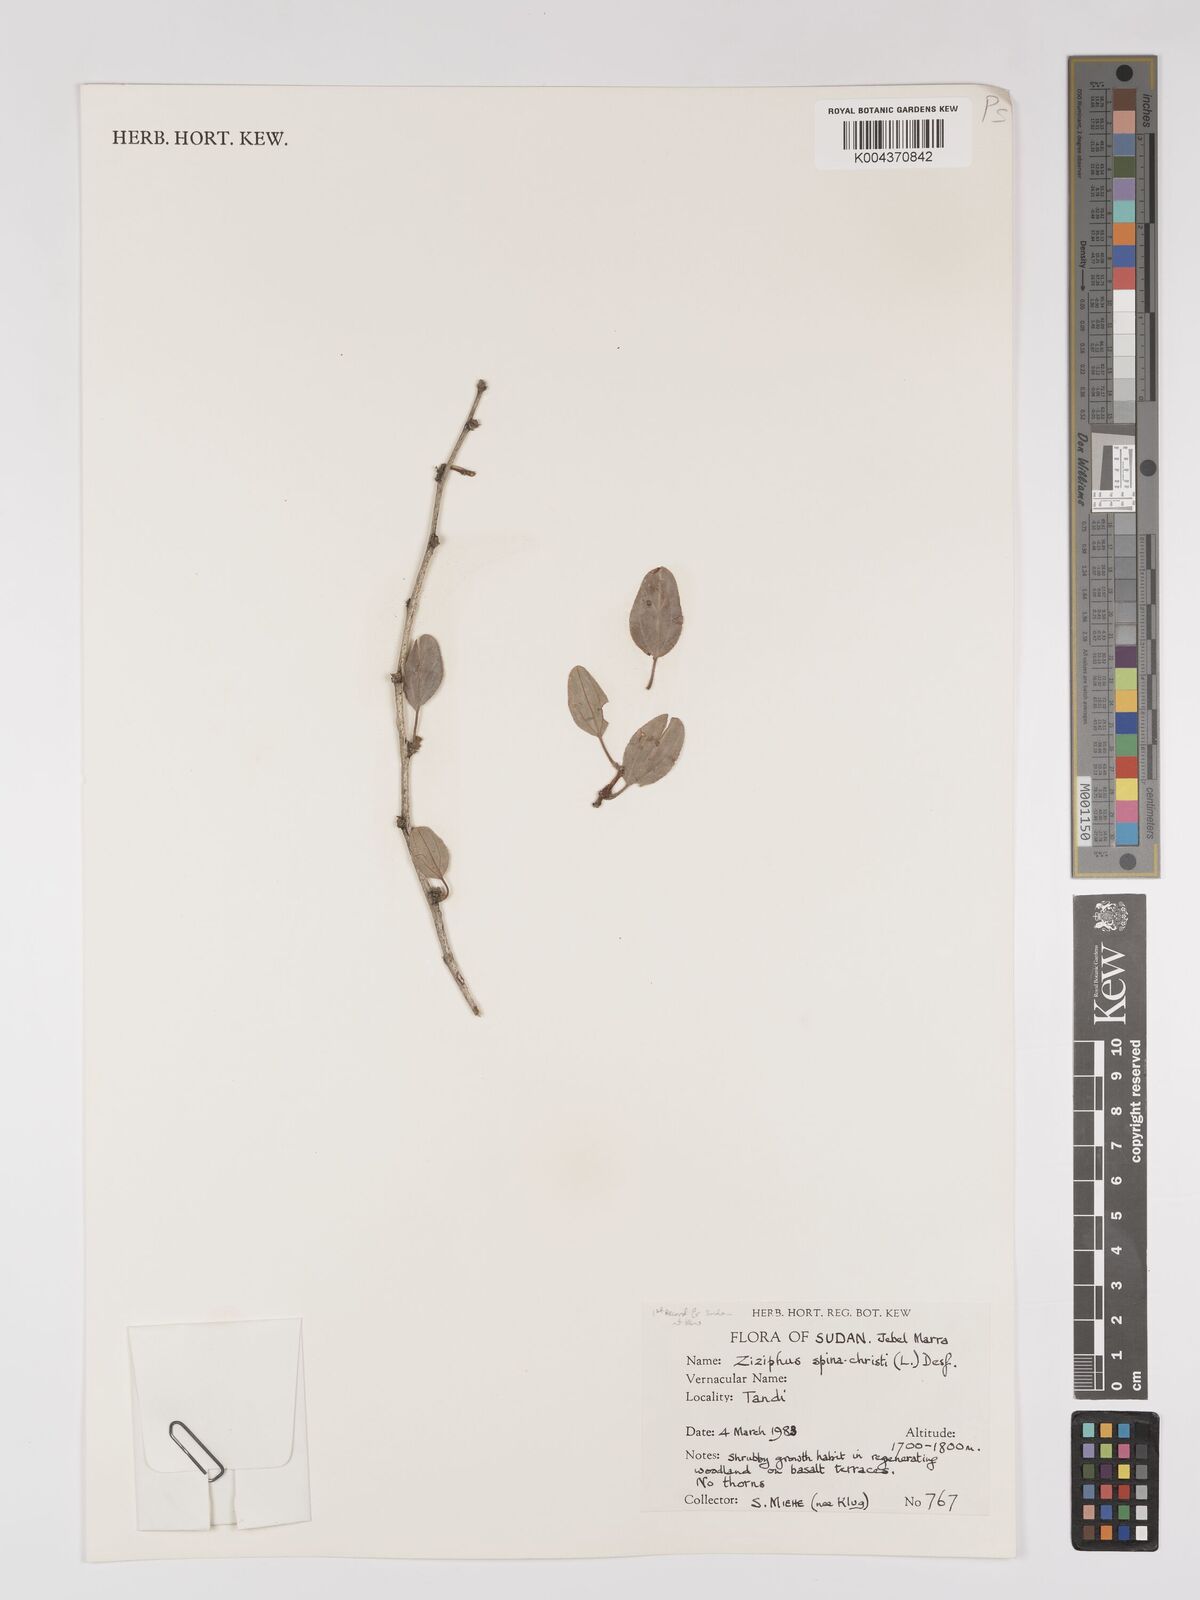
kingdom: Plantae
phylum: Tracheophyta
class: Magnoliopsida
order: Rosales
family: Rhamnaceae
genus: Ziziphus
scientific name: Ziziphus spina-christi
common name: Syrian christ-thorn
